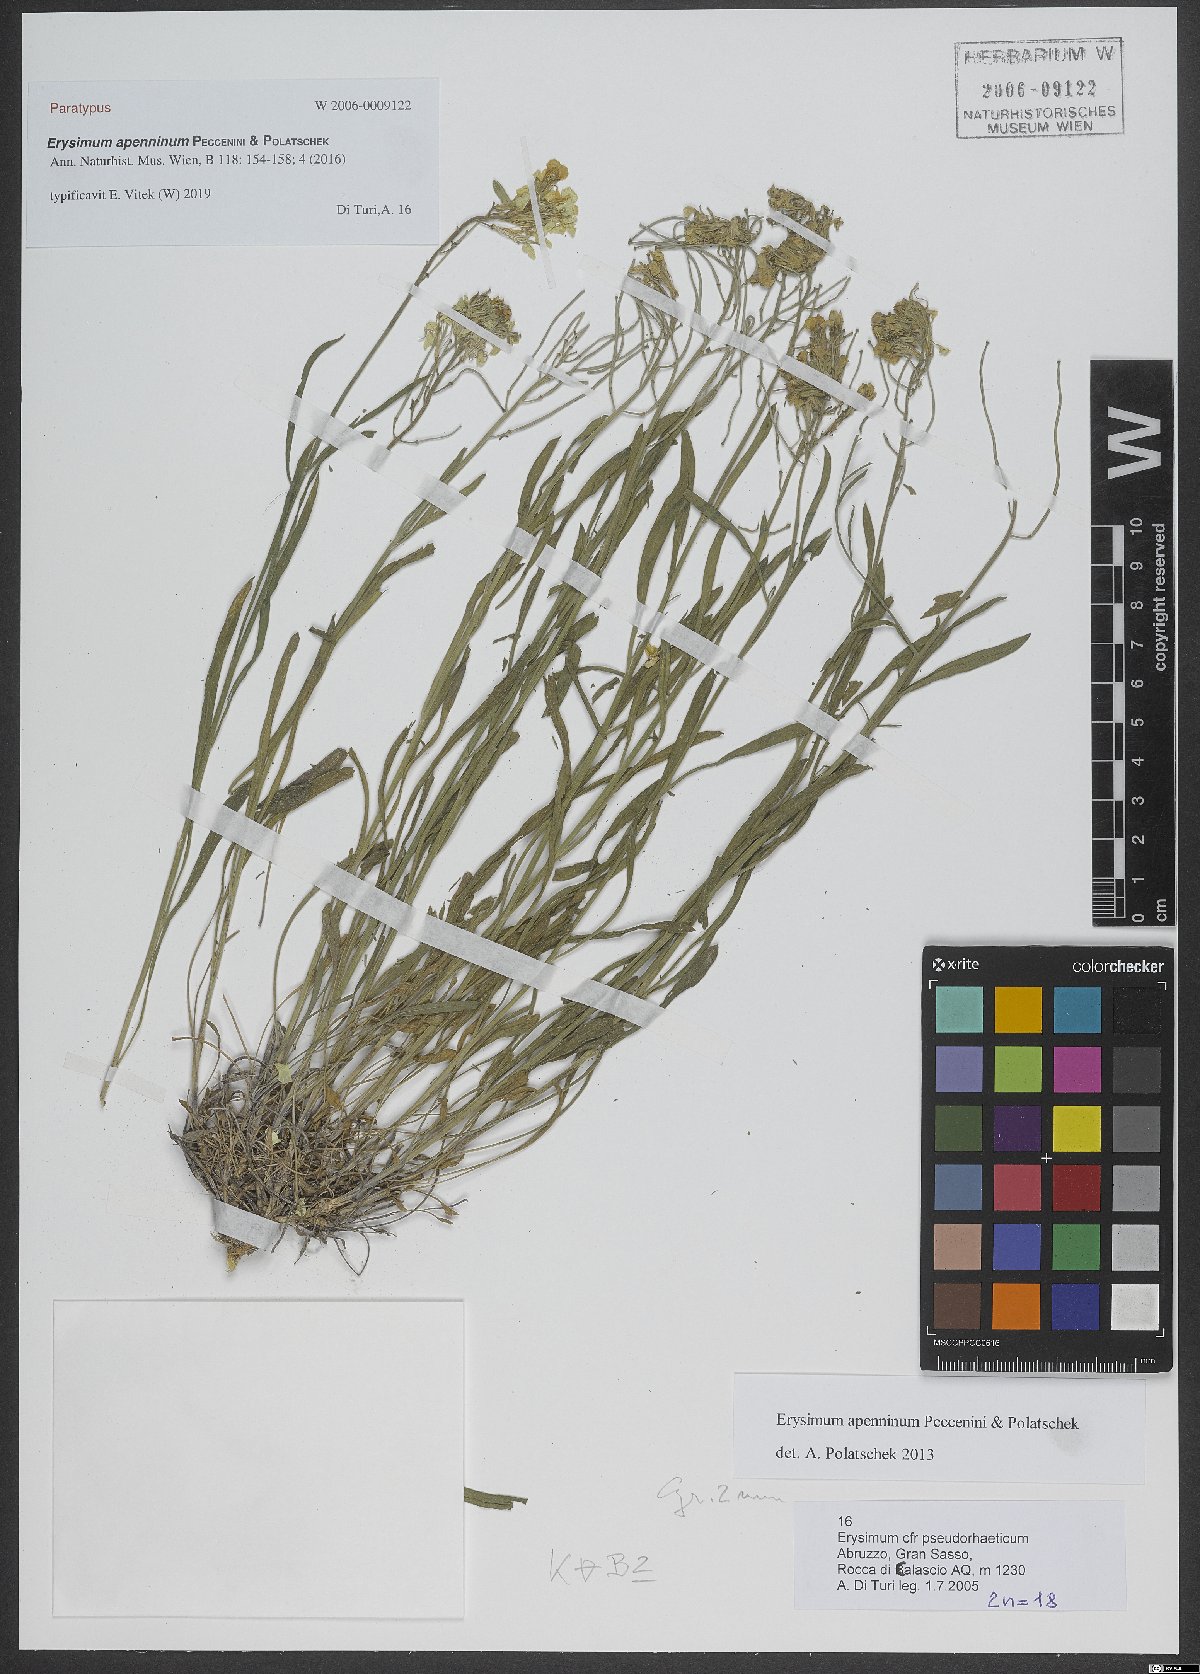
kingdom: Plantae
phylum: Tracheophyta
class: Magnoliopsida
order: Brassicales
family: Brassicaceae
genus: Erysimum
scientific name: Erysimum apenninum
